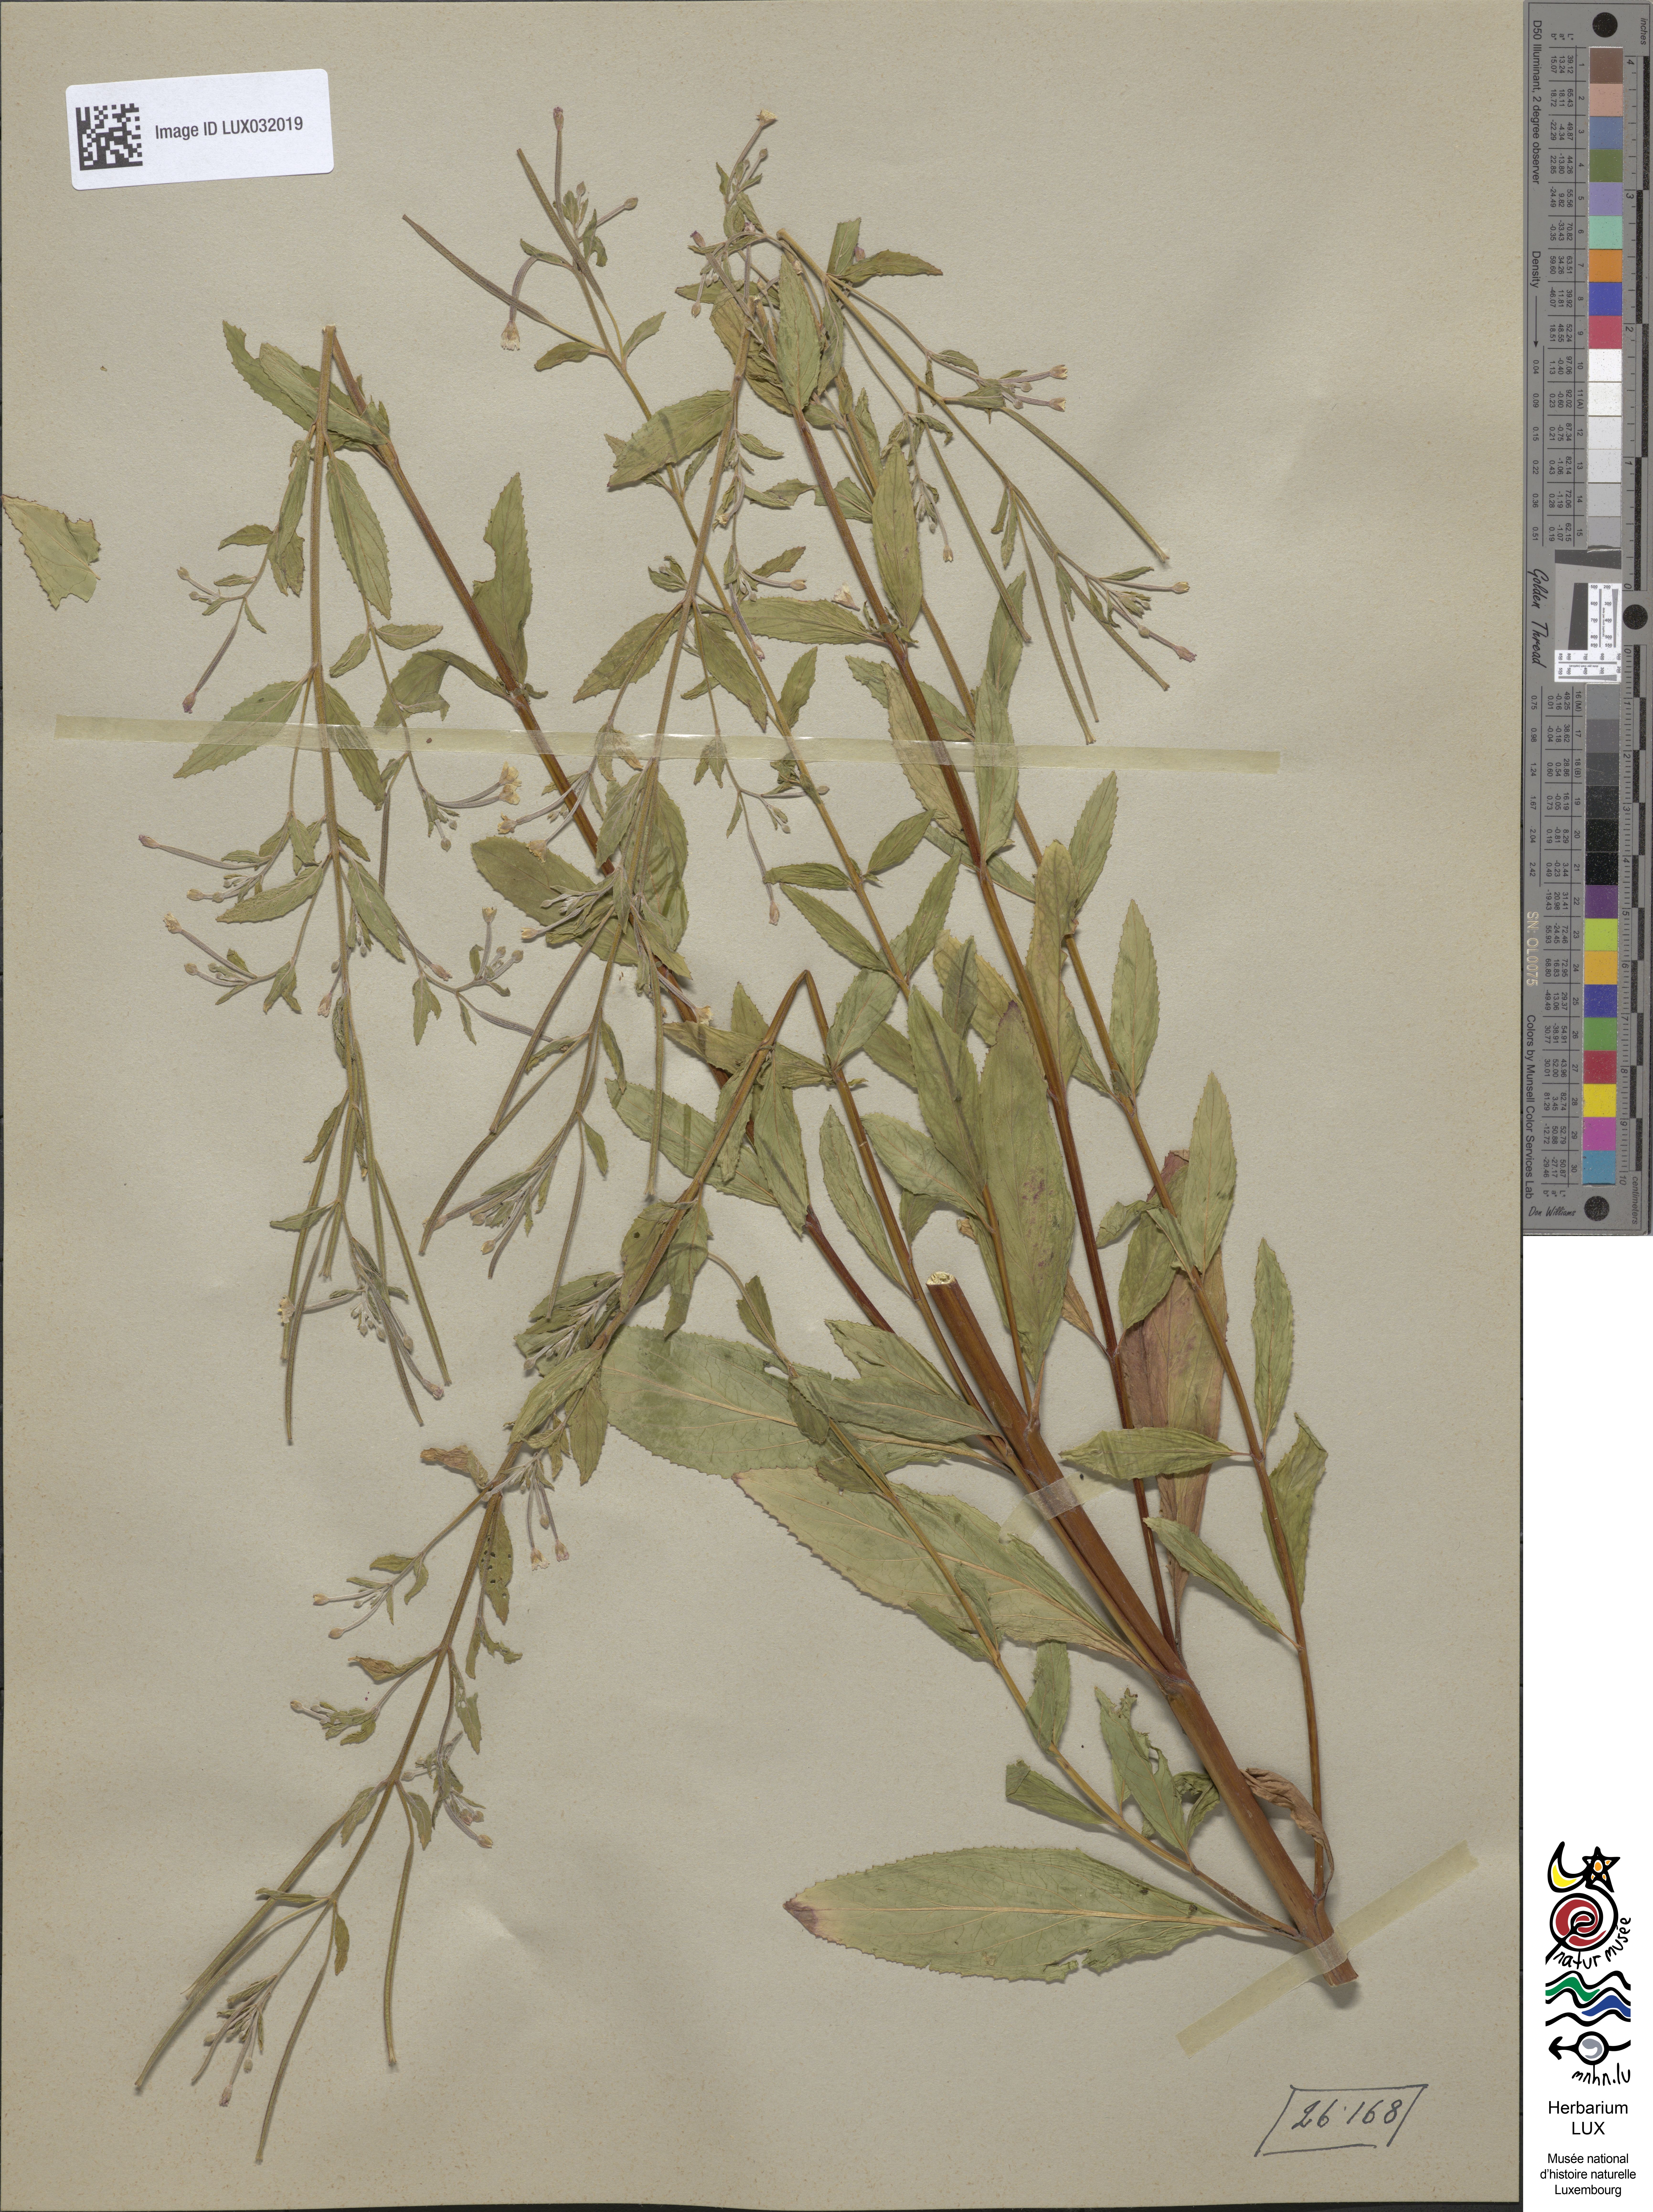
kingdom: Plantae
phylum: Tracheophyta
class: Magnoliopsida
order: Myrtales
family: Onagraceae
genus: Epilobium
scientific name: Epilobium roseum
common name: Pale willowherb
